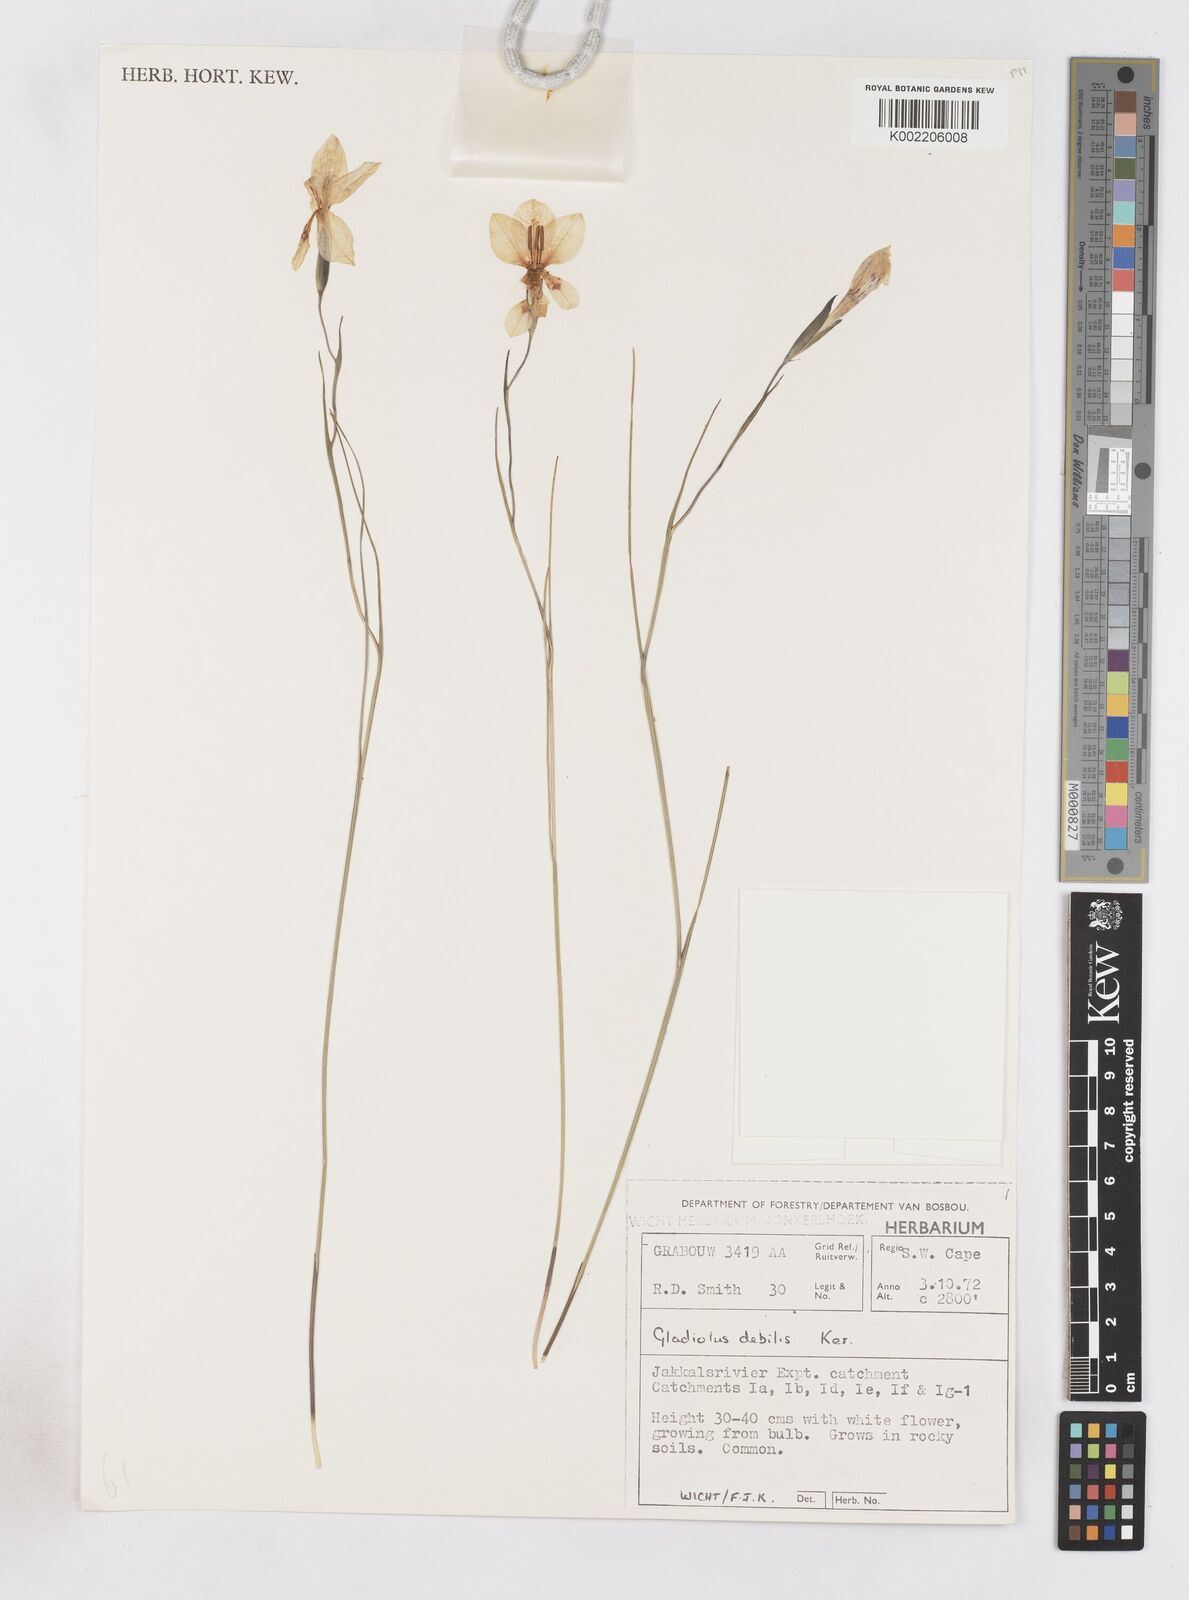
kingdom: Plantae
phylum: Tracheophyta
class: Liliopsida
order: Asparagales
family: Iridaceae
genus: Gladiolus
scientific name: Gladiolus debilis
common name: Painted-lady
